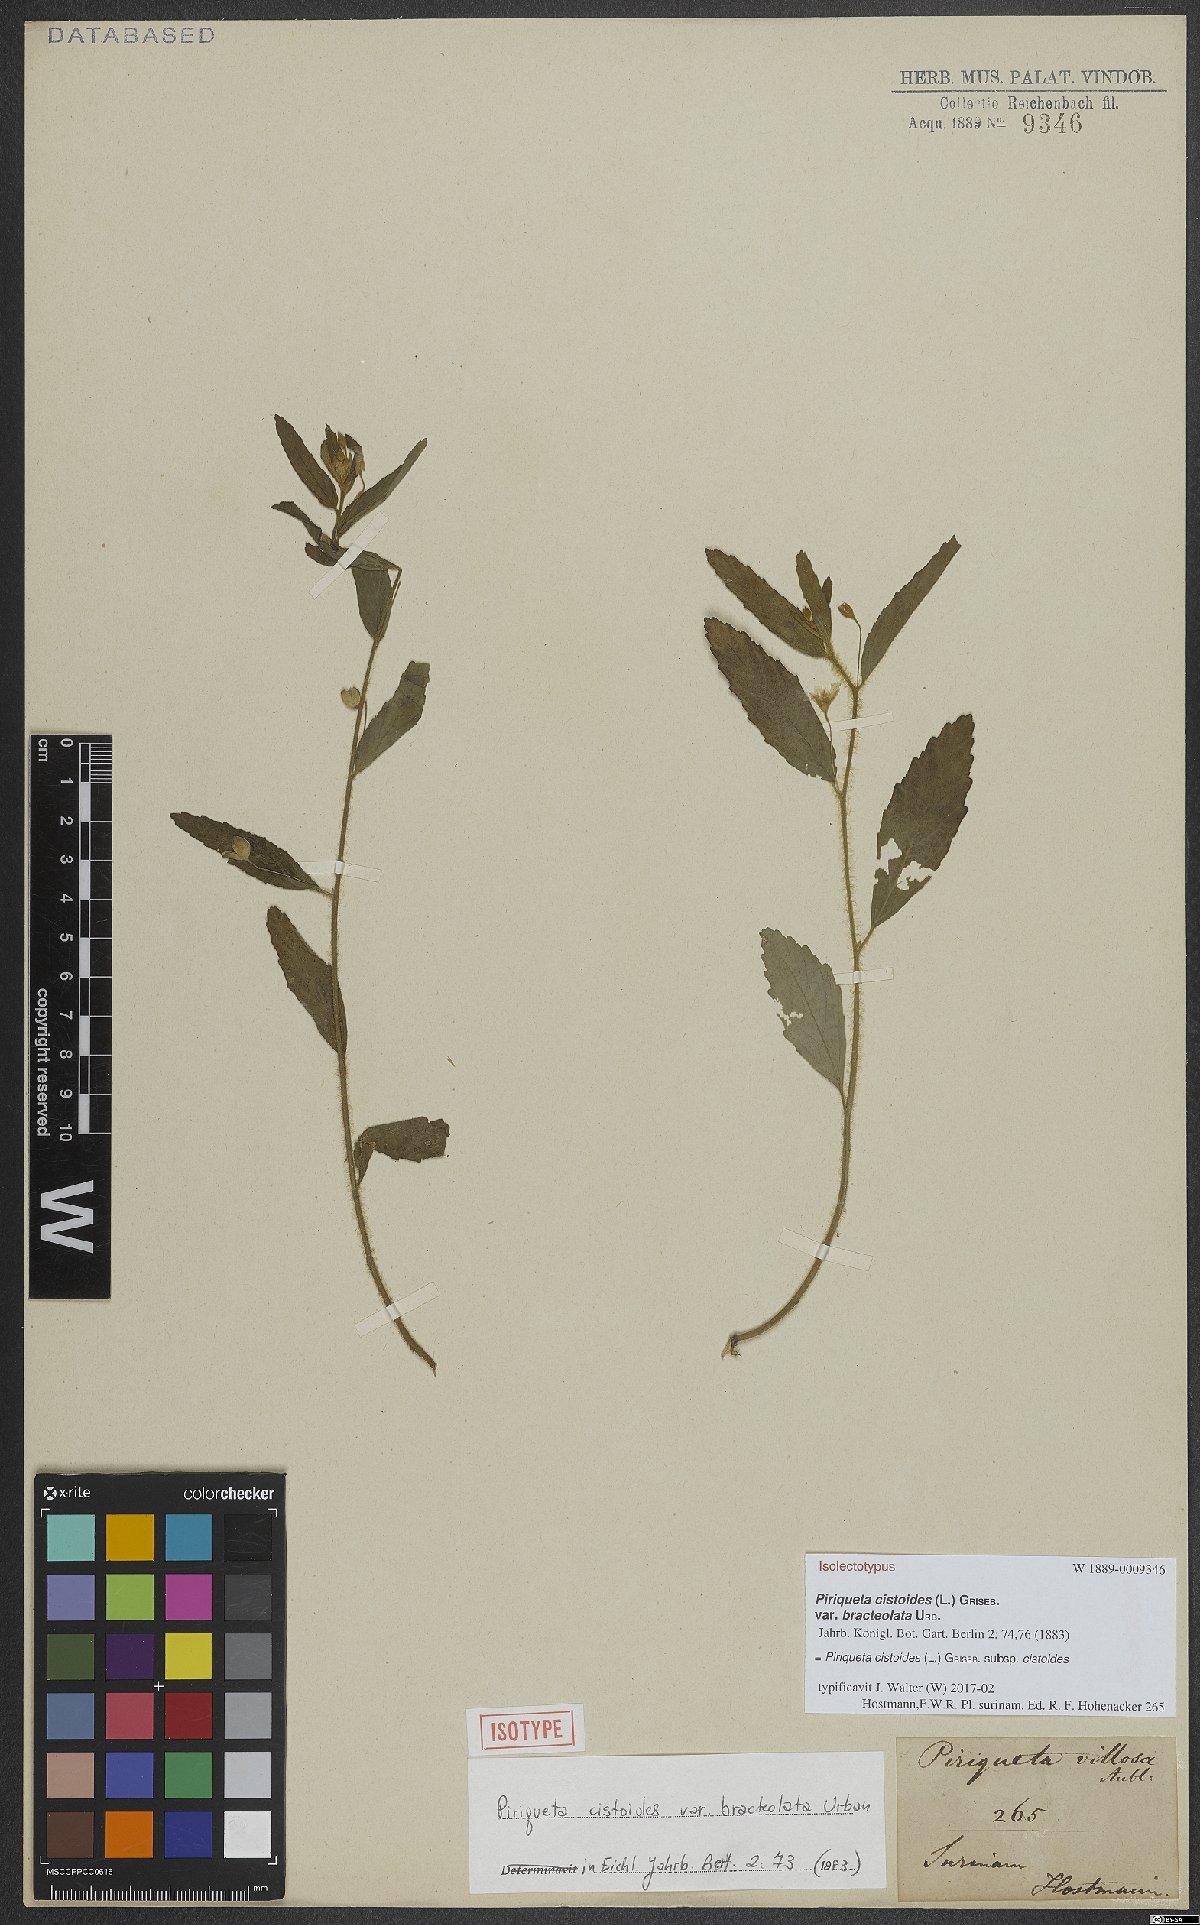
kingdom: Plantae
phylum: Tracheophyta
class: Magnoliopsida
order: Malpighiales
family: Turneraceae
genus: Piriqueta
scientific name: Piriqueta cistoides
